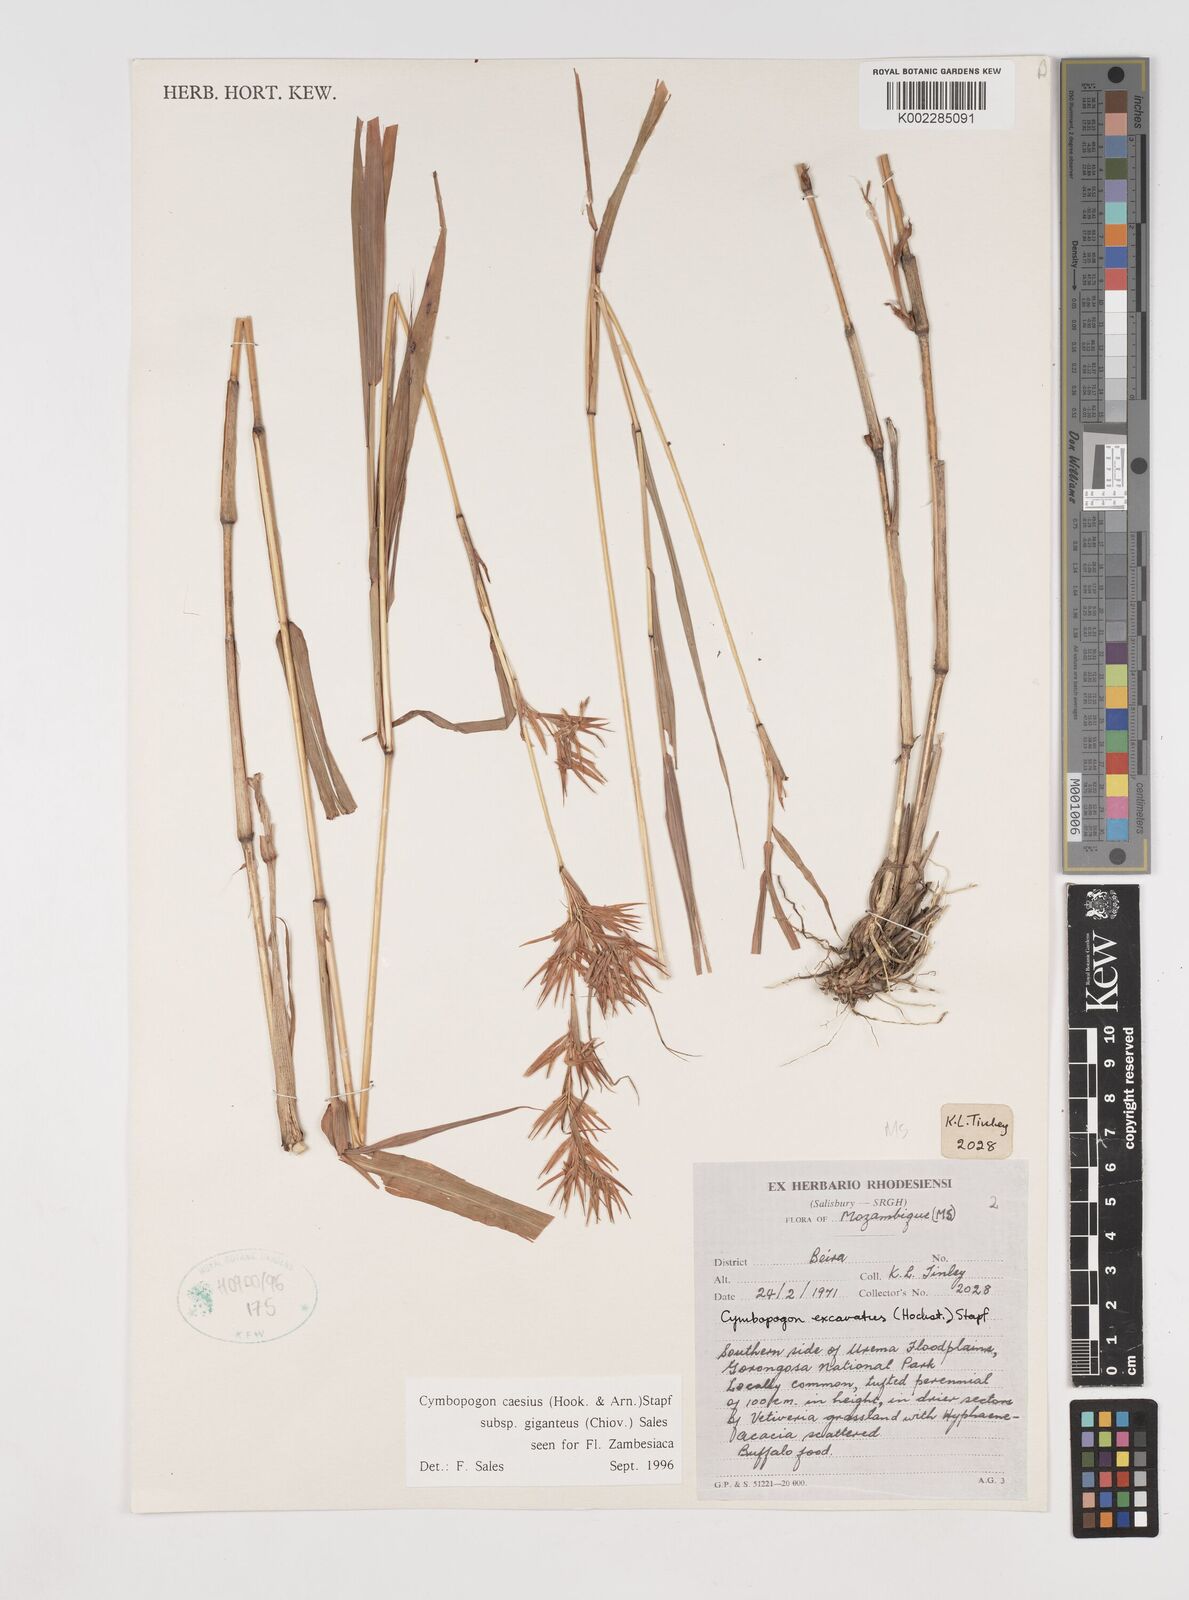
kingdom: Plantae
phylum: Tracheophyta
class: Liliopsida
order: Poales
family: Poaceae
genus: Cymbopogon
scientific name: Cymbopogon giganteus
